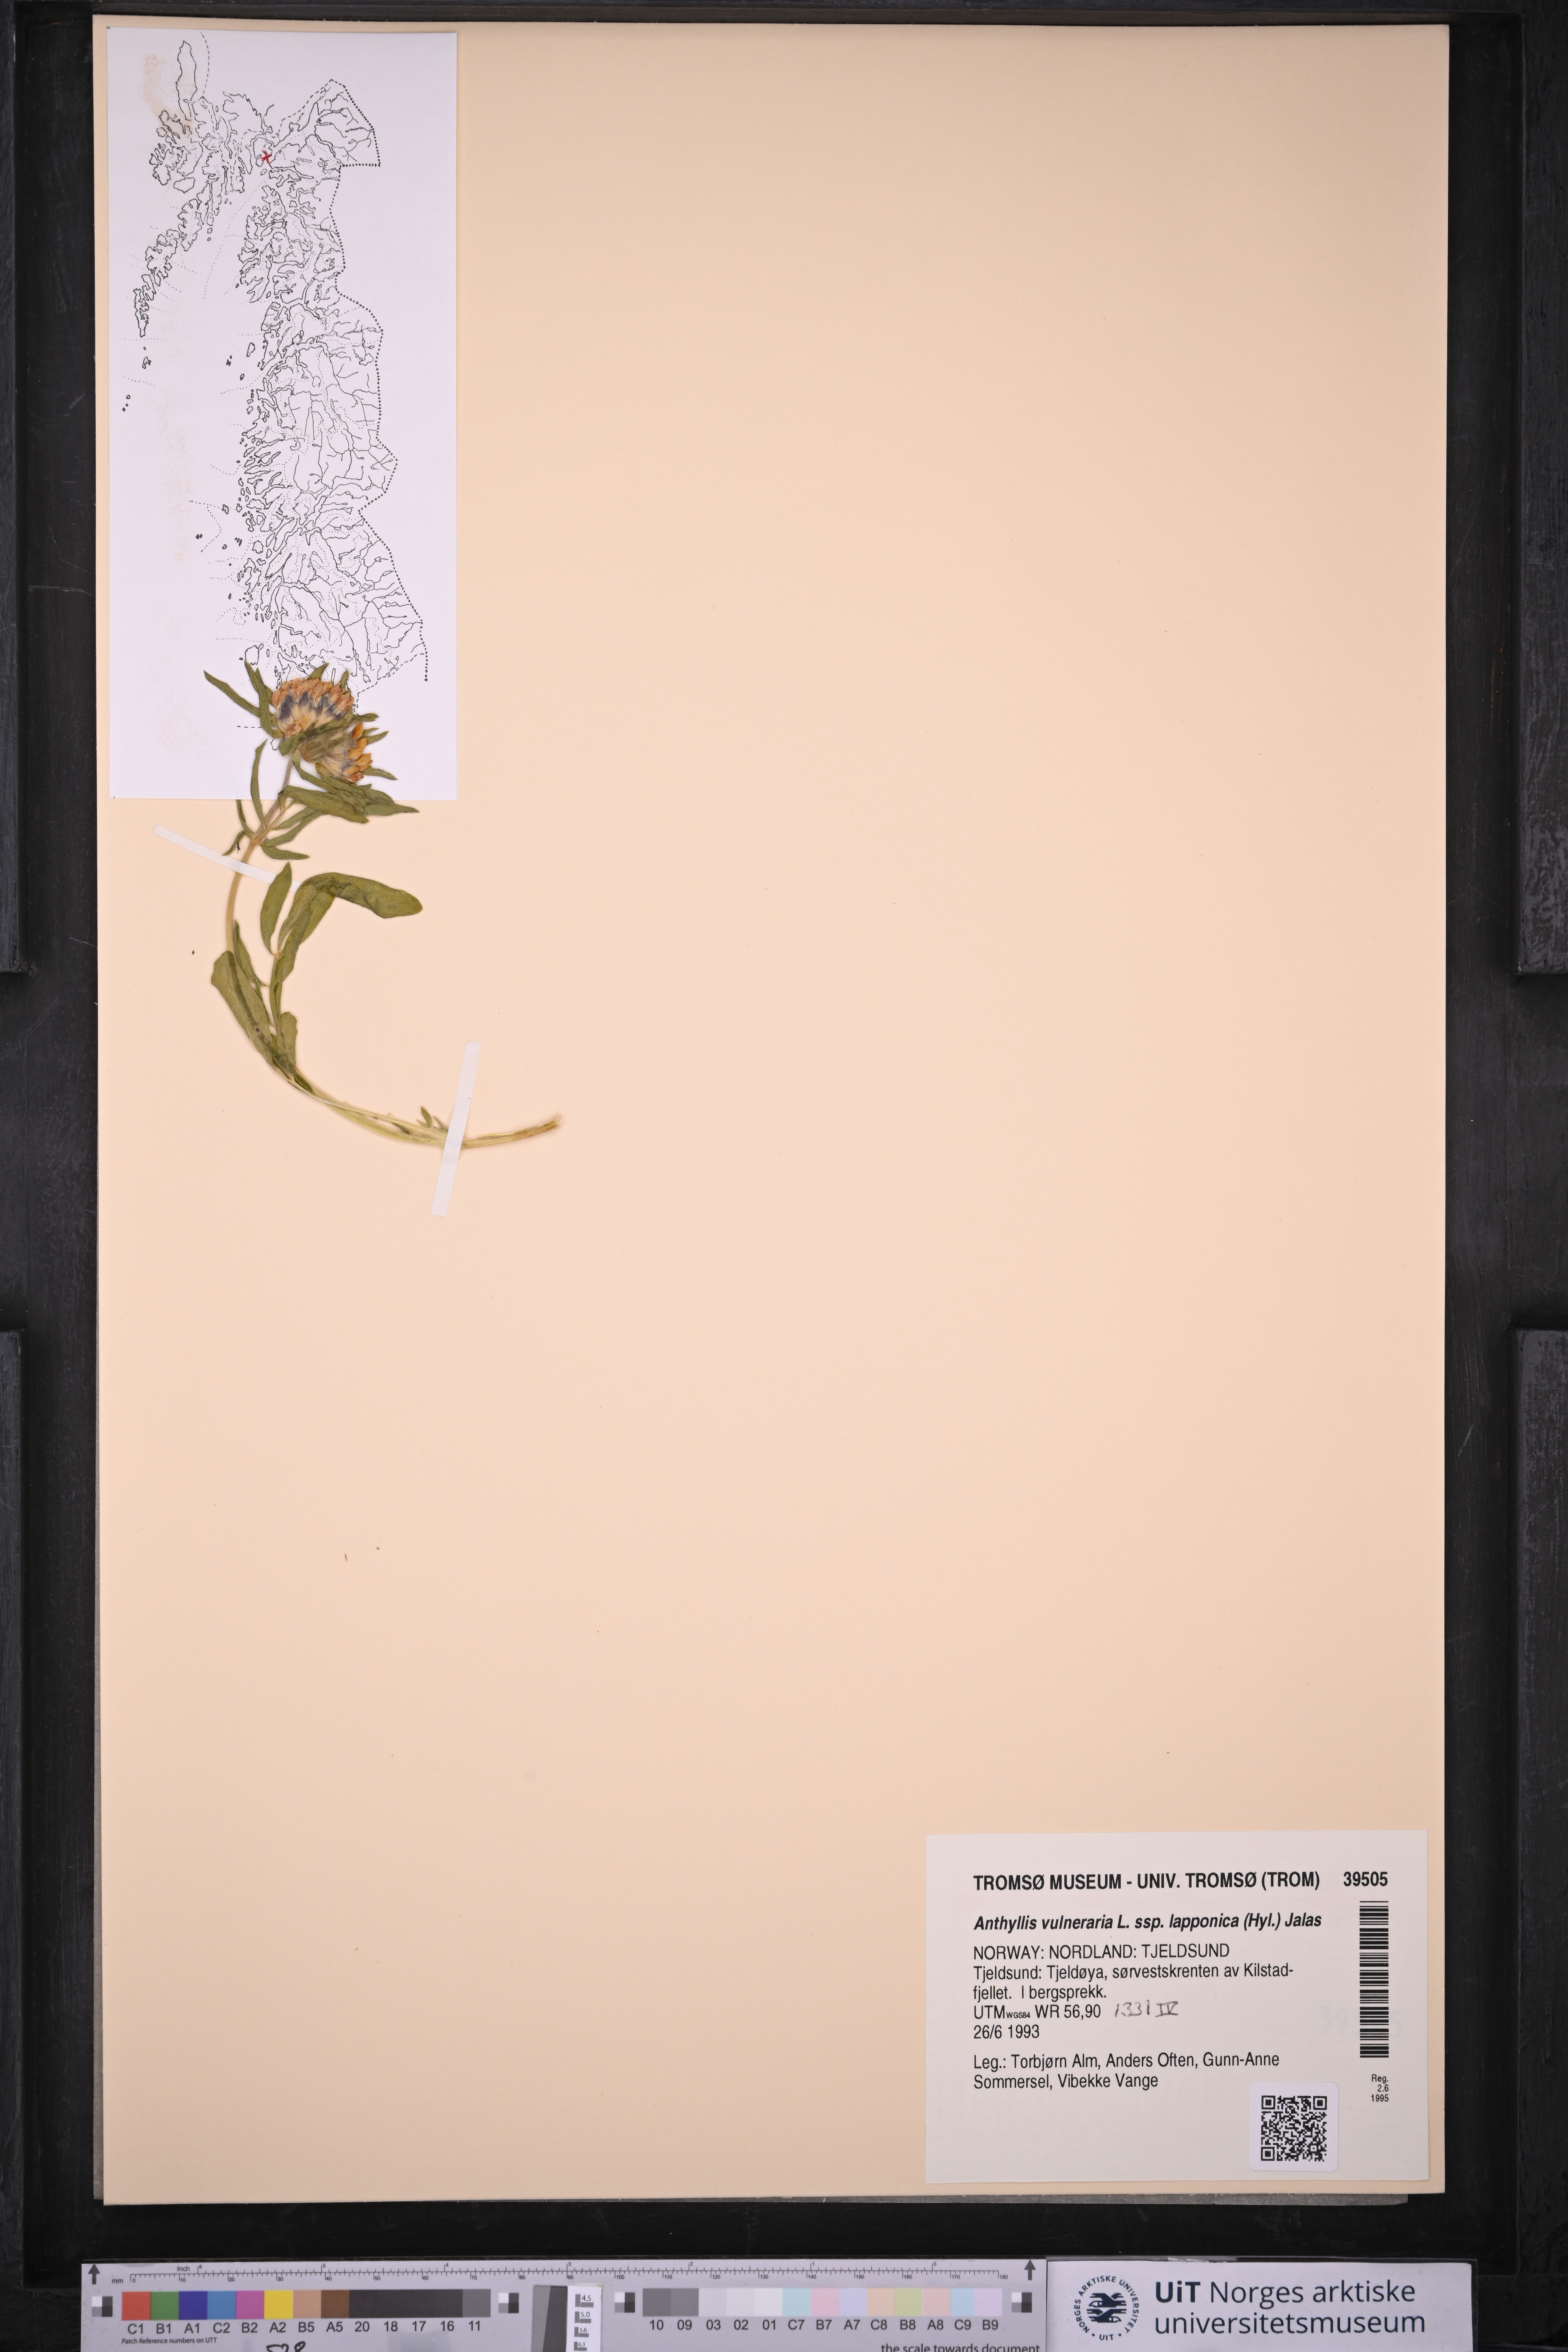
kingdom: Plantae
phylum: Tracheophyta
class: Magnoliopsida
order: Fabales
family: Fabaceae
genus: Anthyllis
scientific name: Anthyllis vulneraria
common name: Kidney vetch
